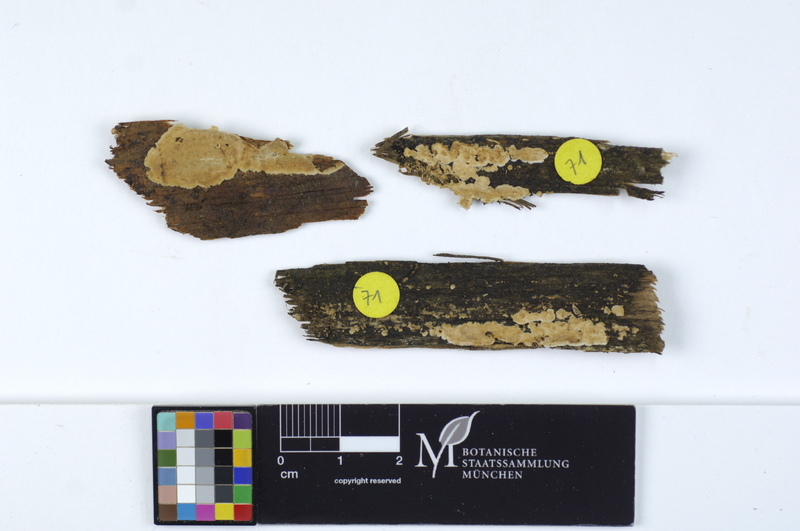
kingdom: Fungi
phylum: Basidiomycota
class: Agaricomycetes
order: Polyporales
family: Dacryobolaceae
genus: Dacryobolus
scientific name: Dacryobolus karstenii
